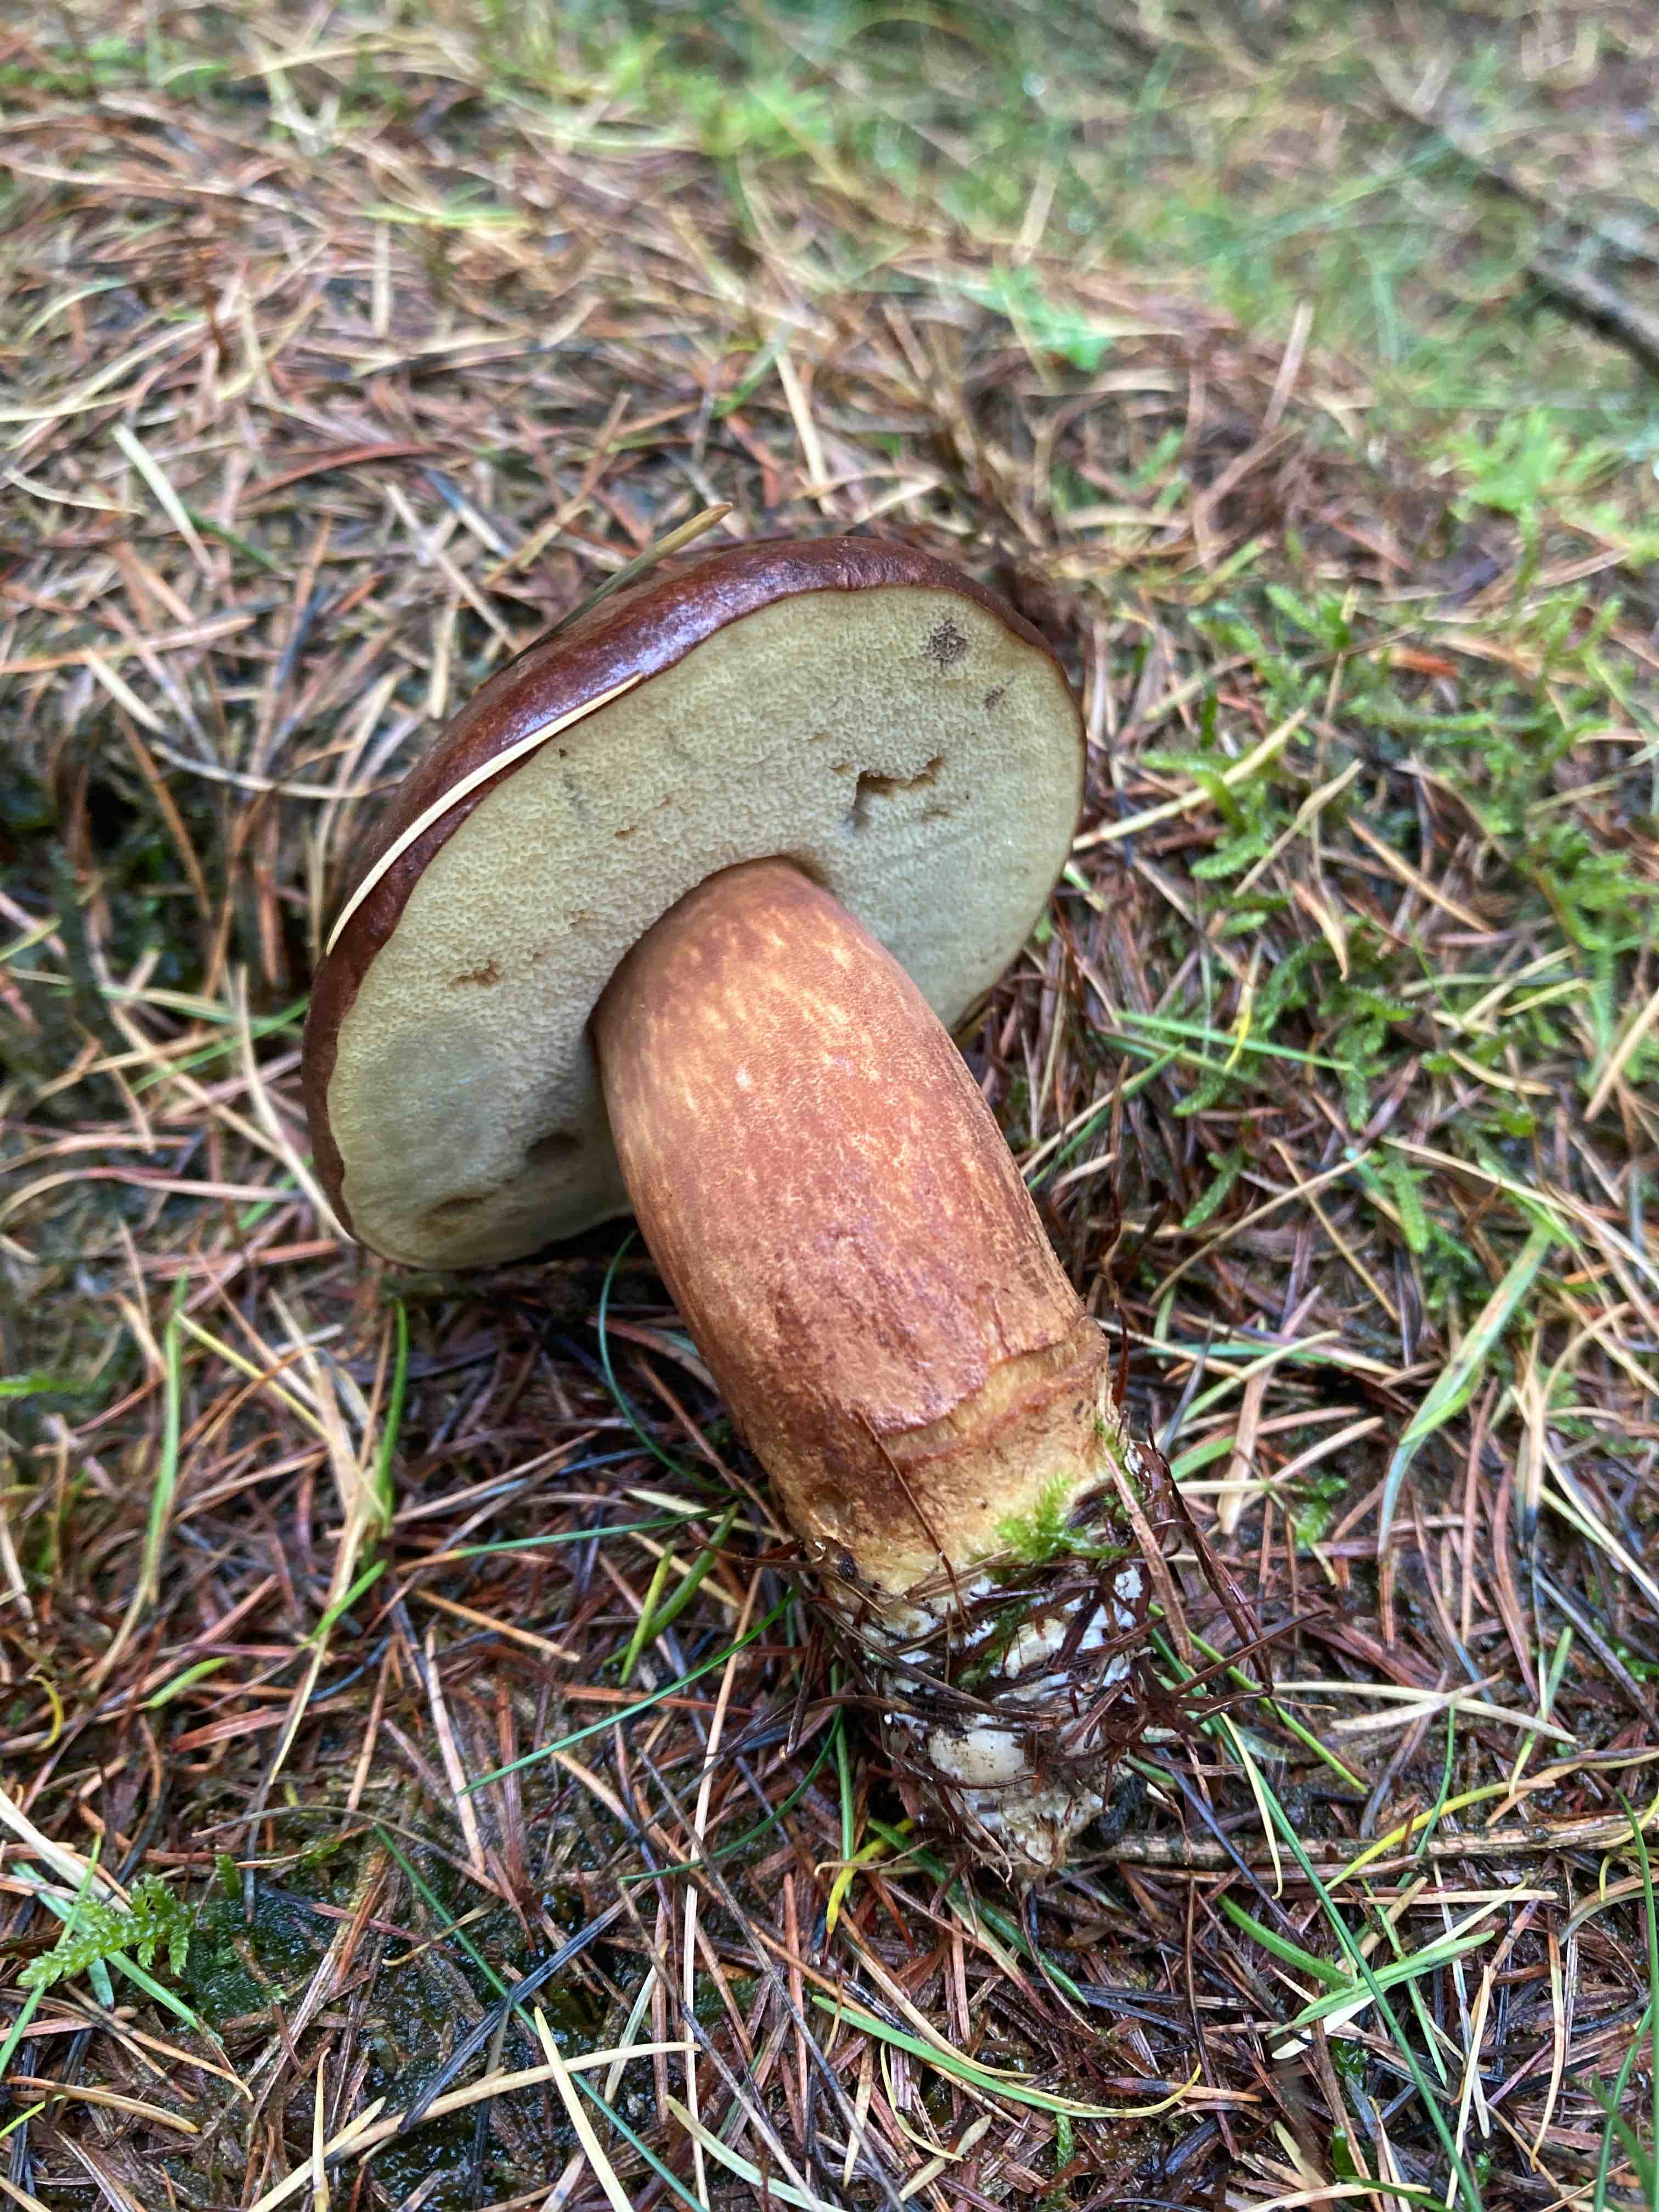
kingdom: Fungi
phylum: Basidiomycota
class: Agaricomycetes
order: Boletales
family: Boletaceae
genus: Imleria
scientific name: Imleria badia
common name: brunstokket rørhat
